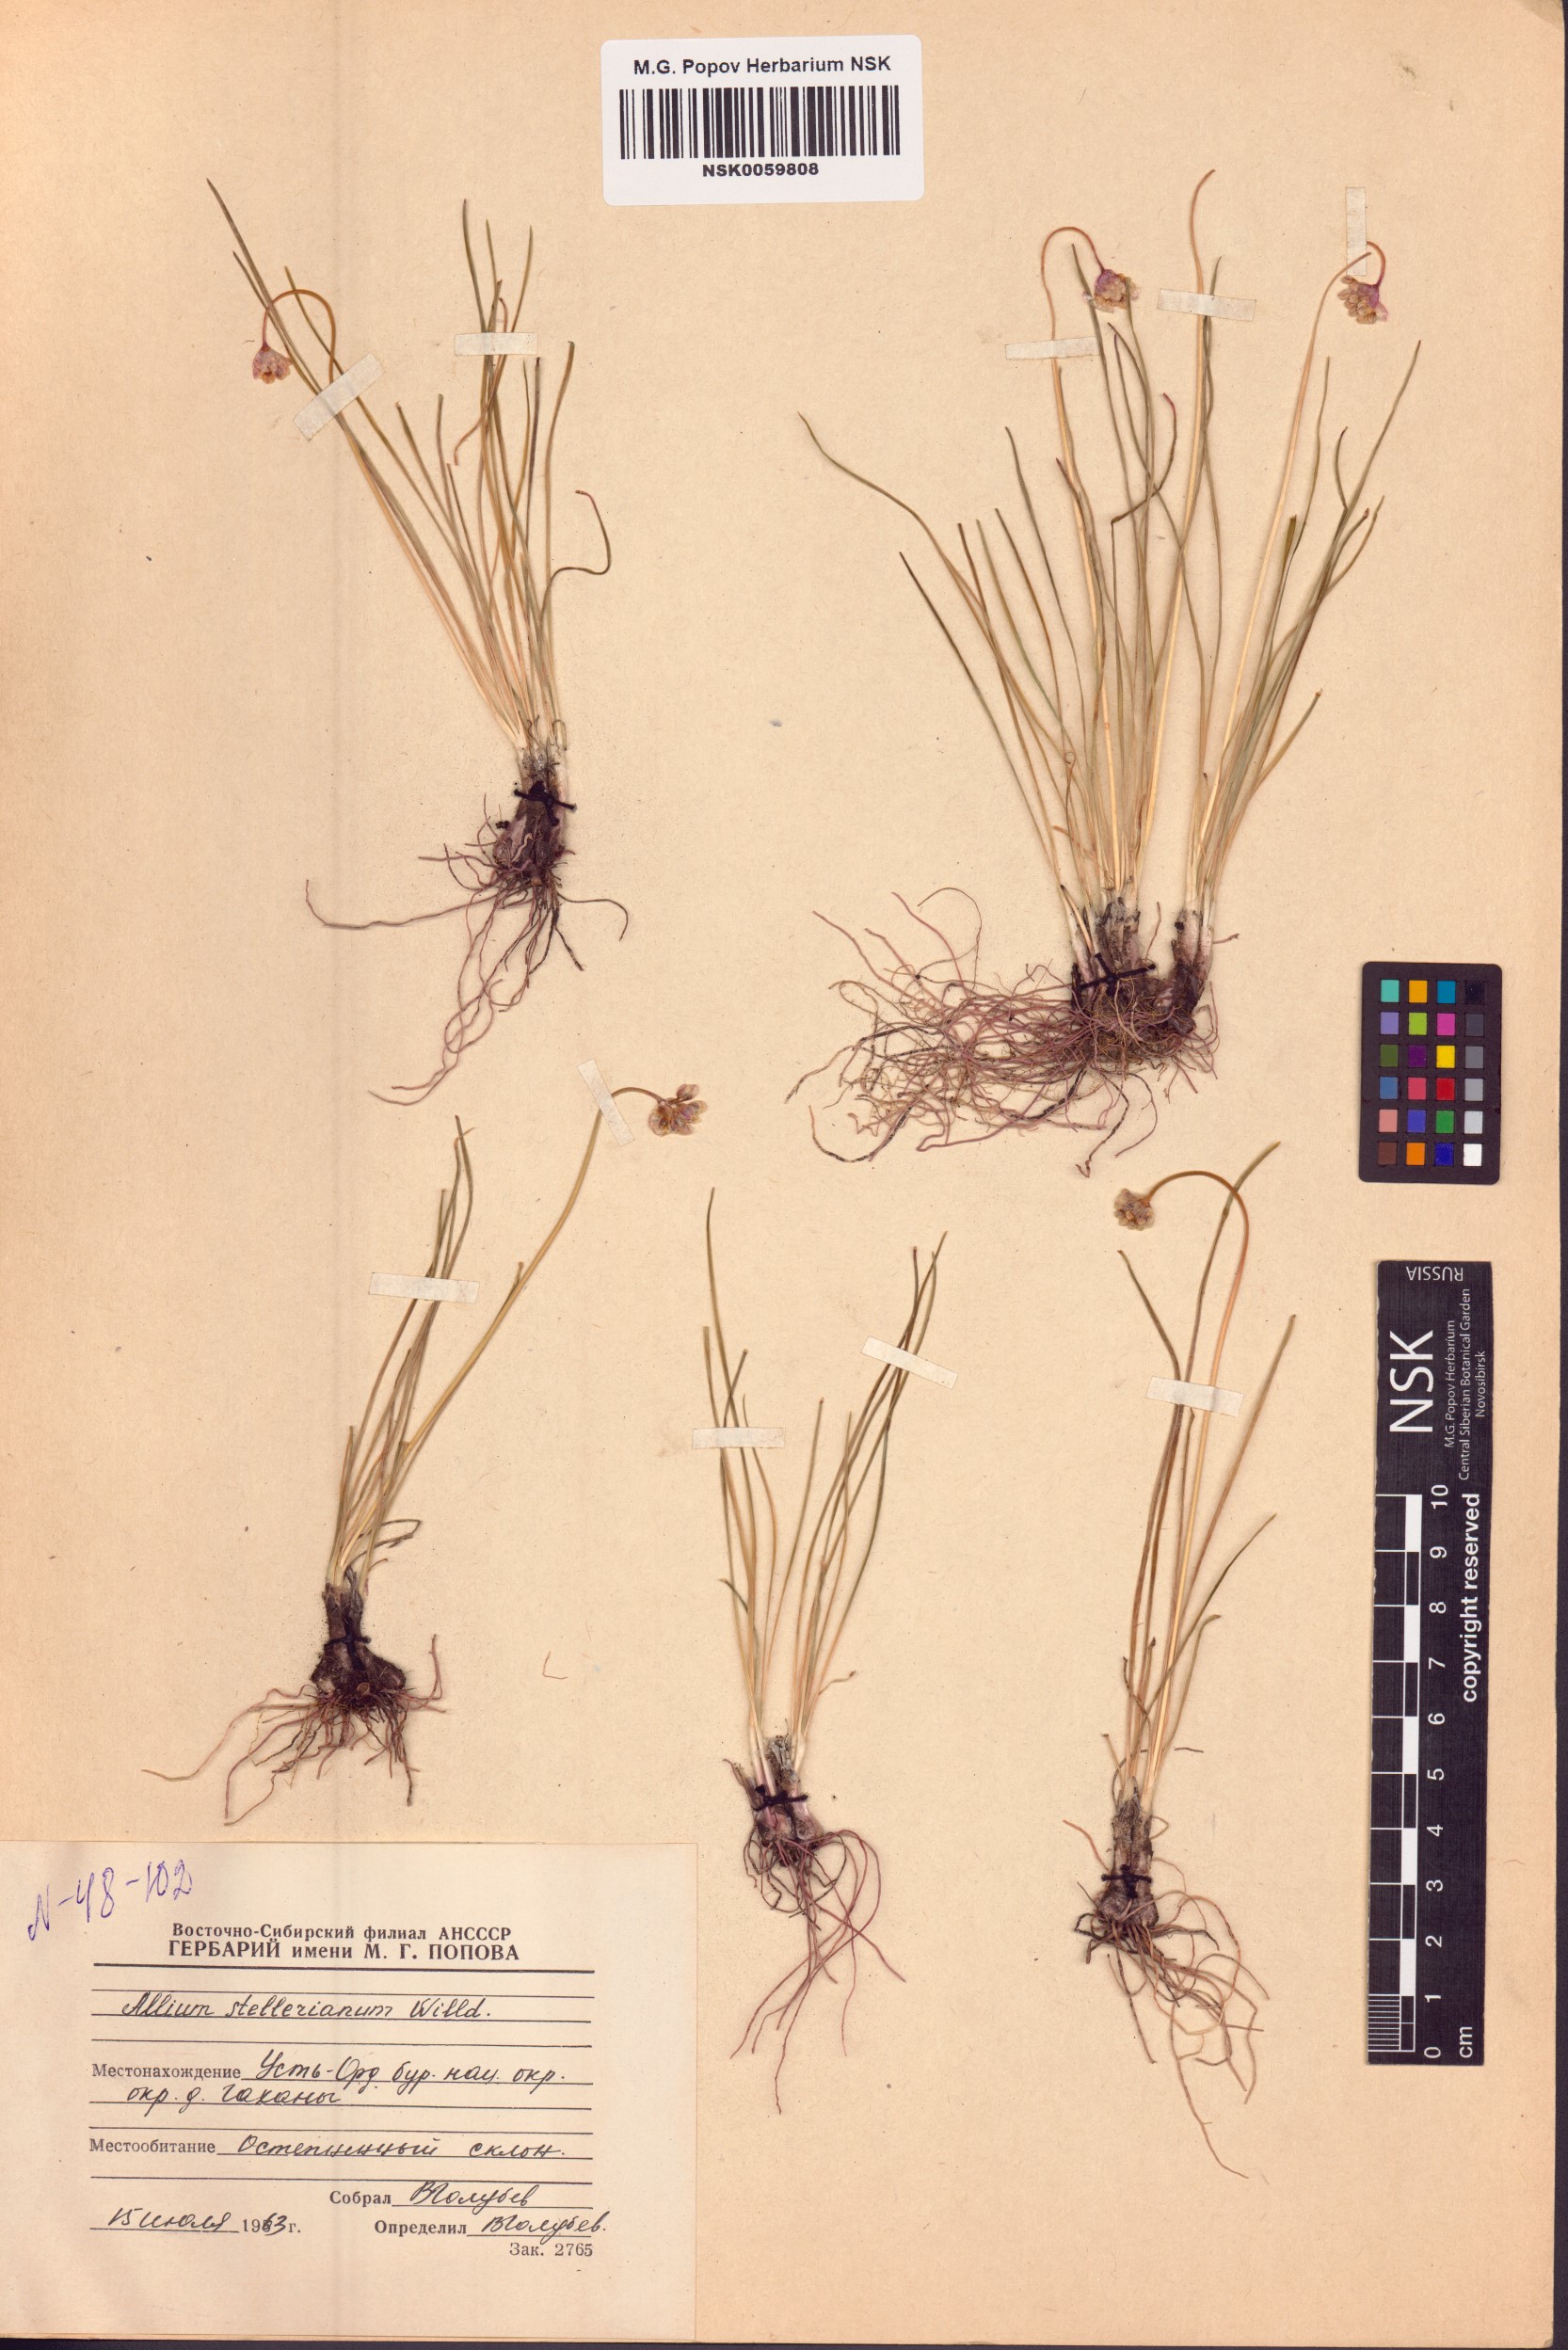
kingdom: Plantae
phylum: Tracheophyta
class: Liliopsida
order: Asparagales
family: Amaryllidaceae
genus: Allium
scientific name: Allium stellerianum
